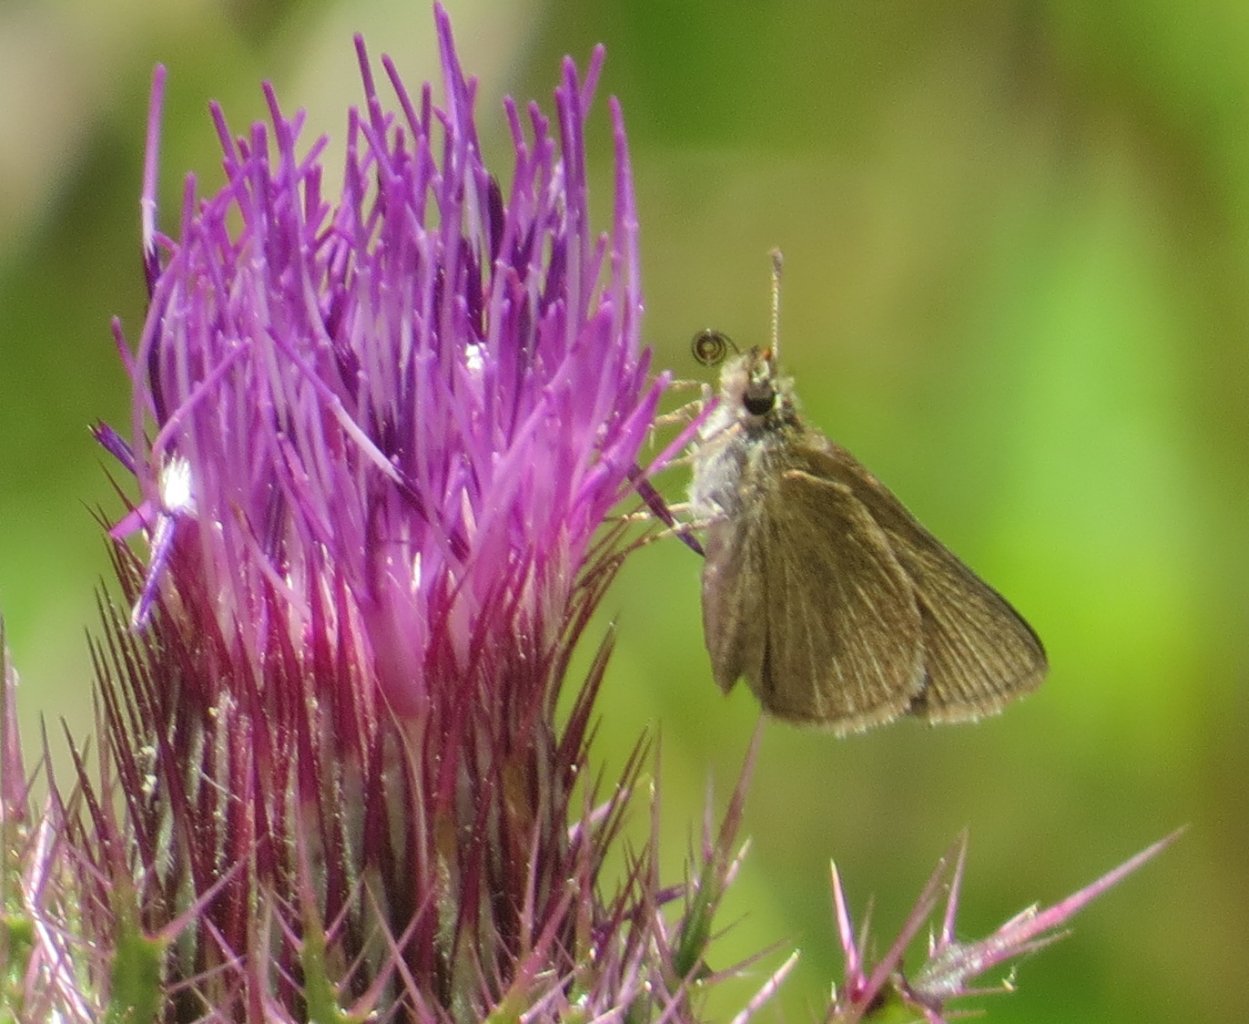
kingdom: Animalia
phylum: Arthropoda
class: Insecta
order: Lepidoptera
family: Hesperiidae
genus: Nastra
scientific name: Nastra lherminier
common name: Swarthy Skipper
